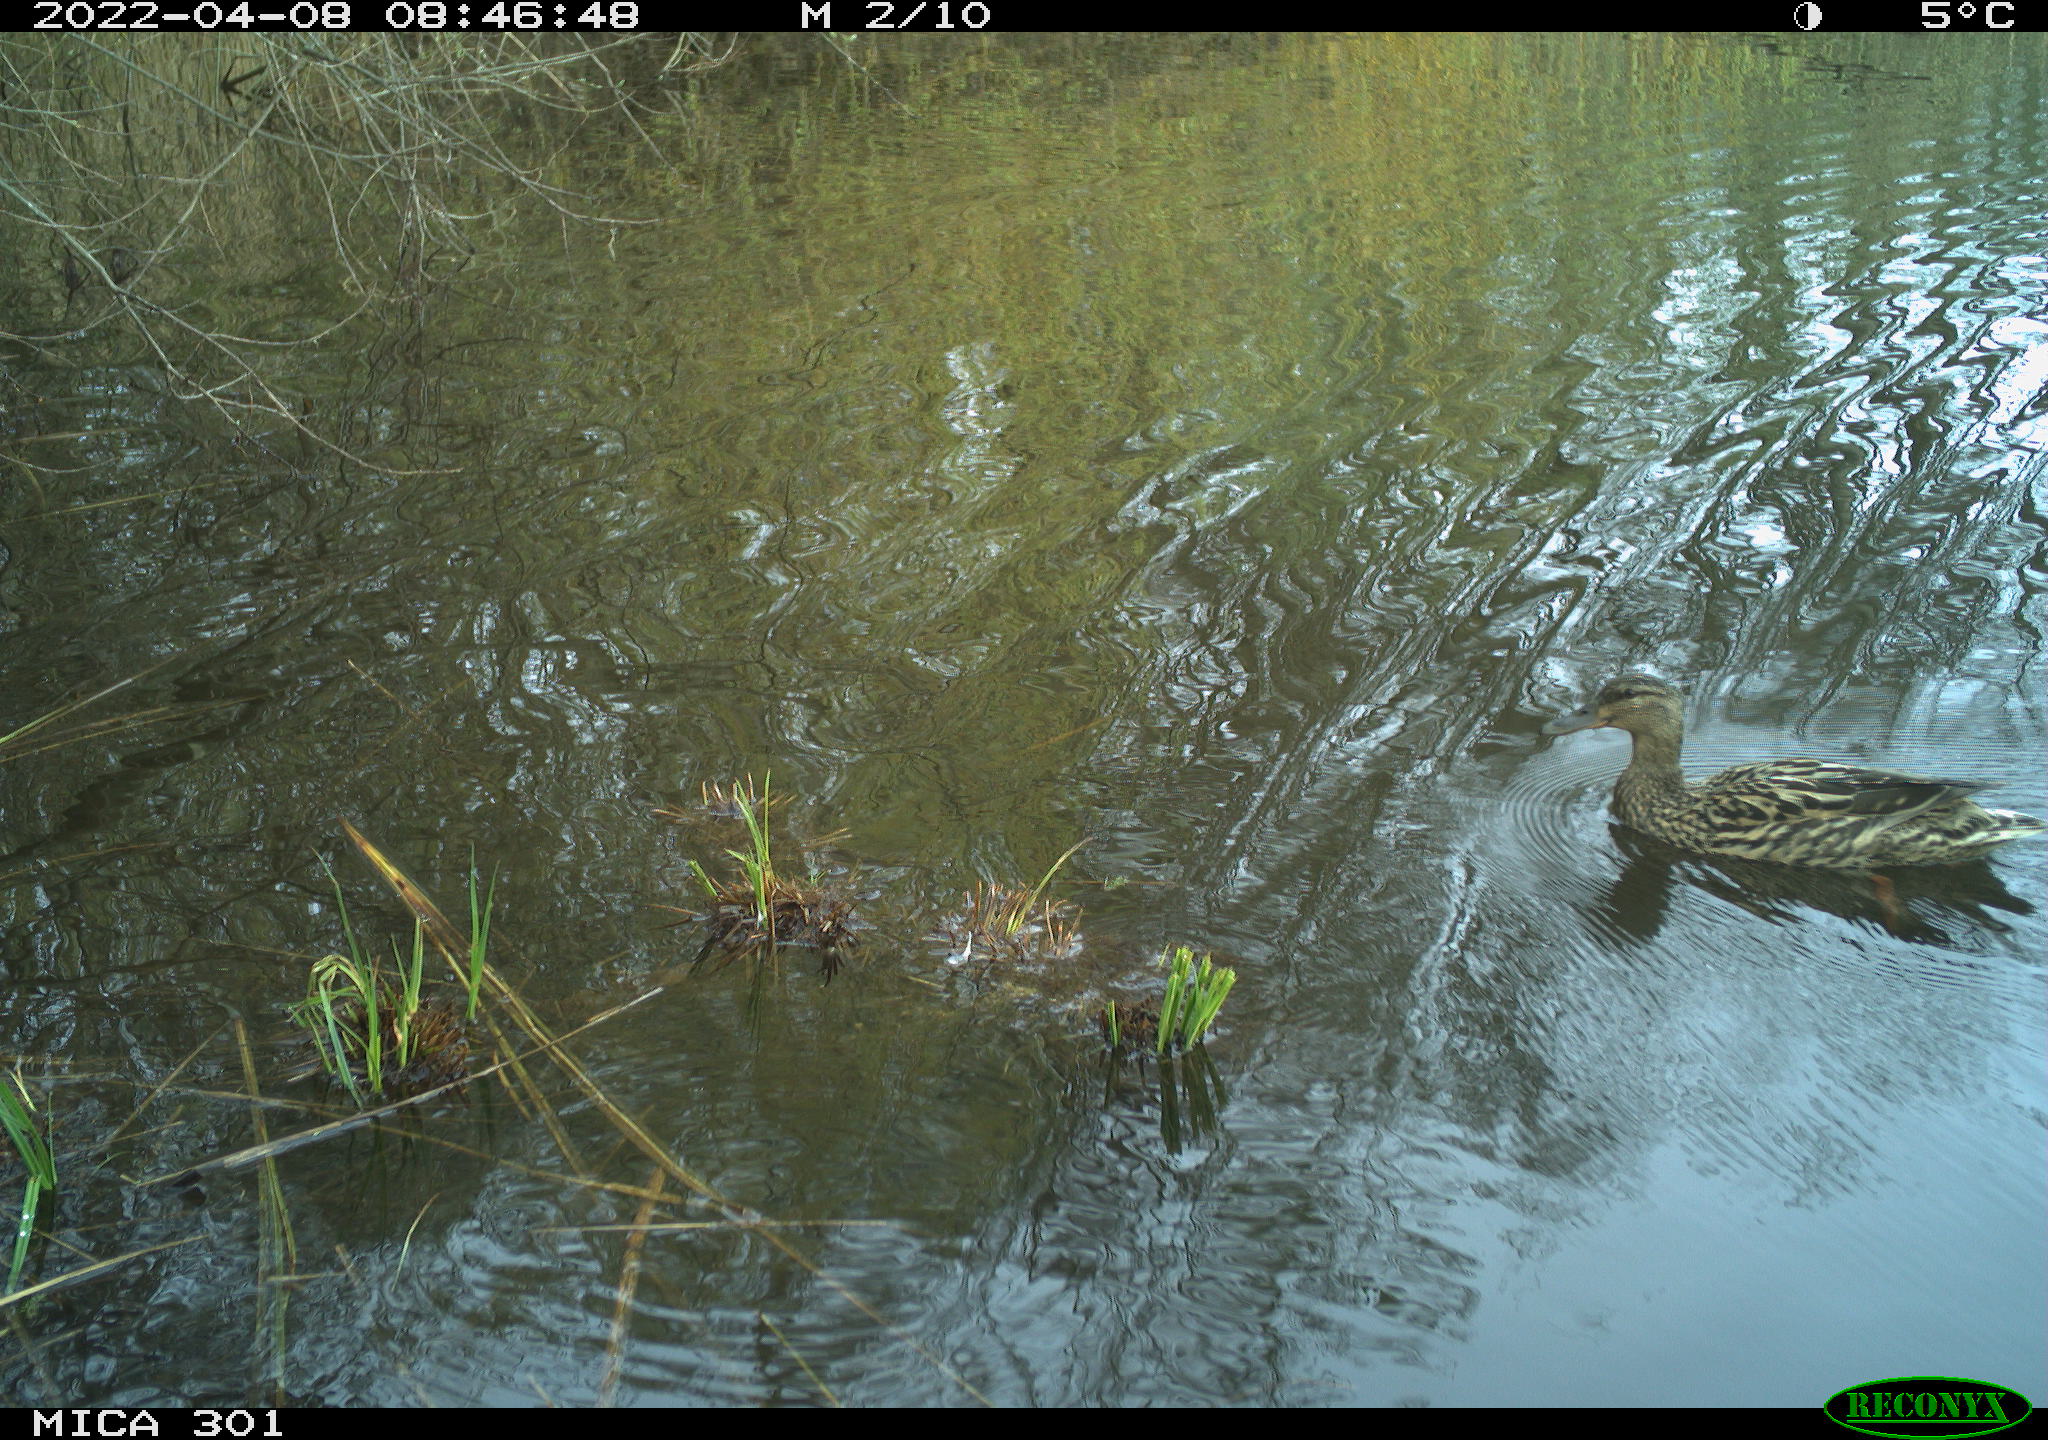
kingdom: Animalia
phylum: Chordata
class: Aves
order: Anseriformes
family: Anatidae
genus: Mareca
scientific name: Mareca strepera
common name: Gadwall
